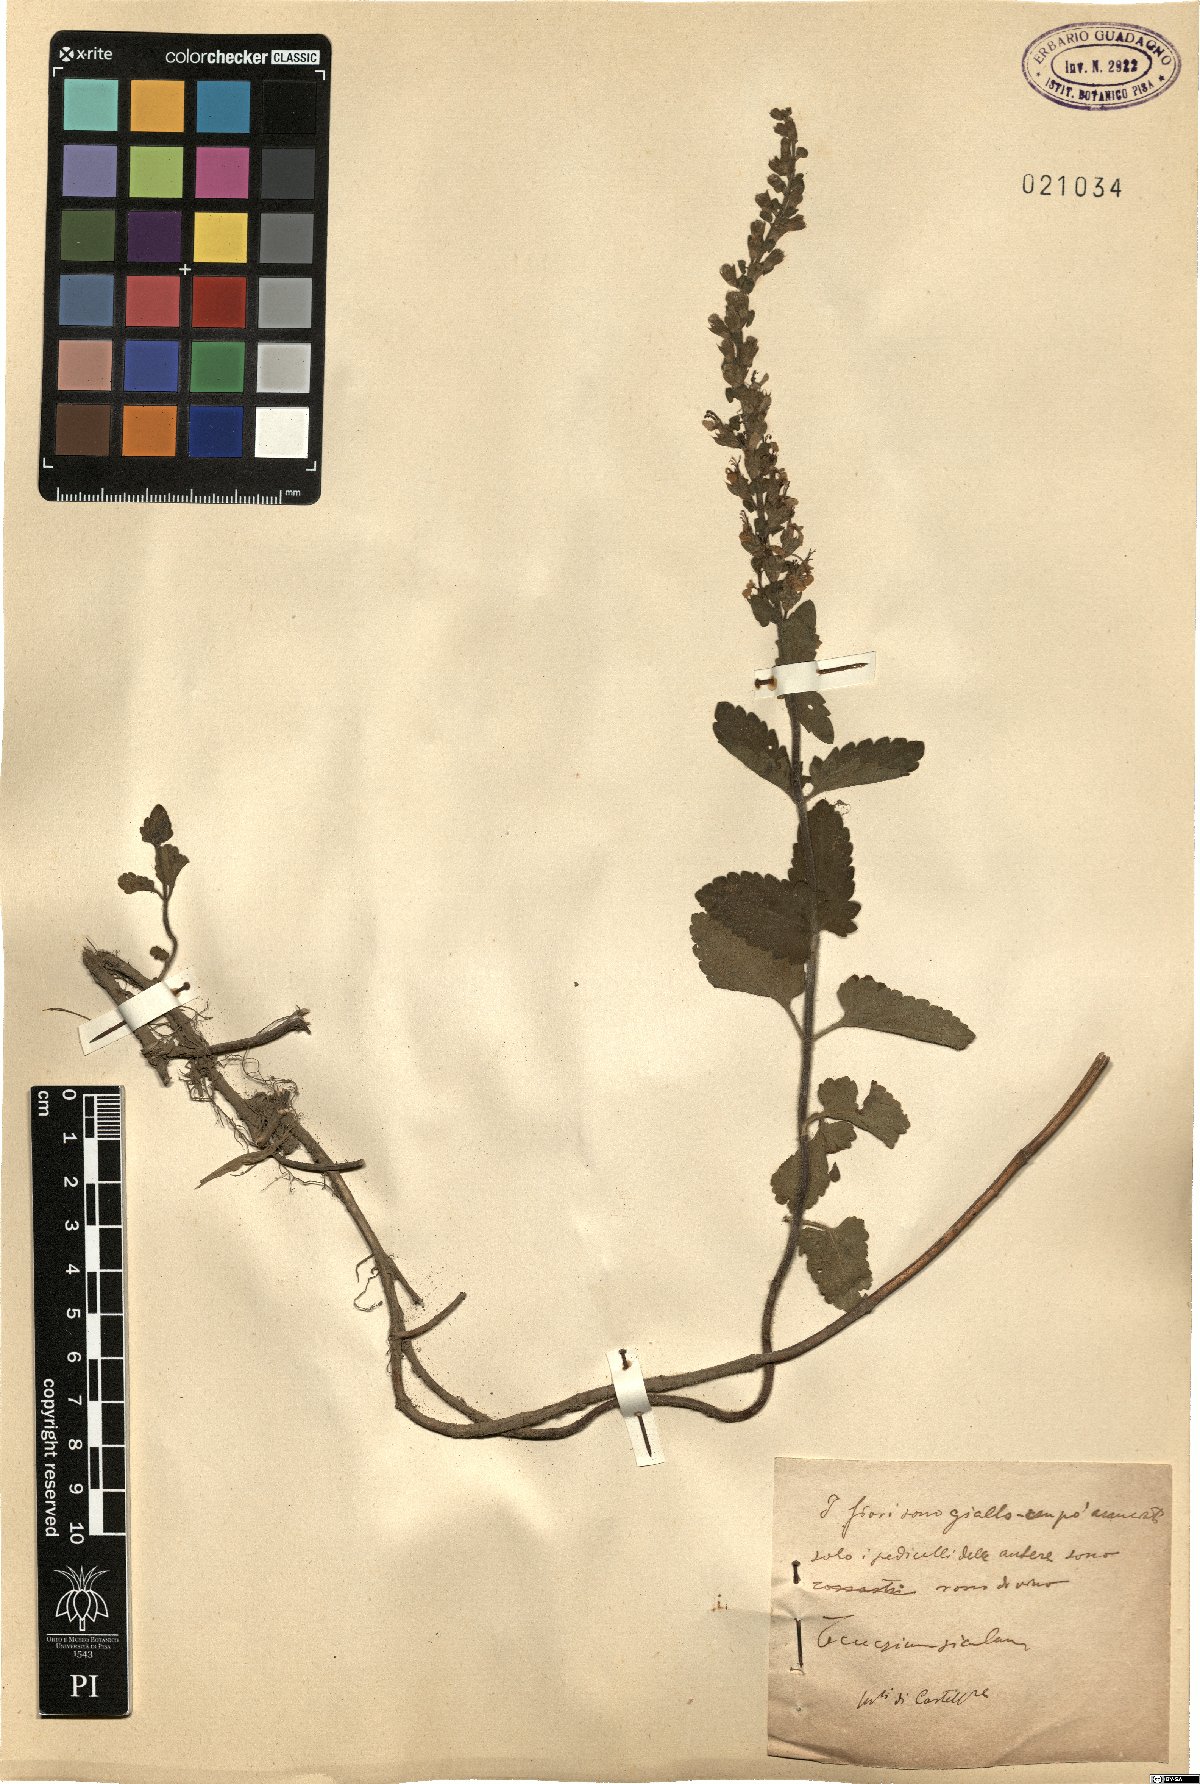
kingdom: Plantae
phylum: Tracheophyta
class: Magnoliopsida
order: Lamiales
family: Lamiaceae
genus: Teucrium
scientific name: Teucrium siculum
